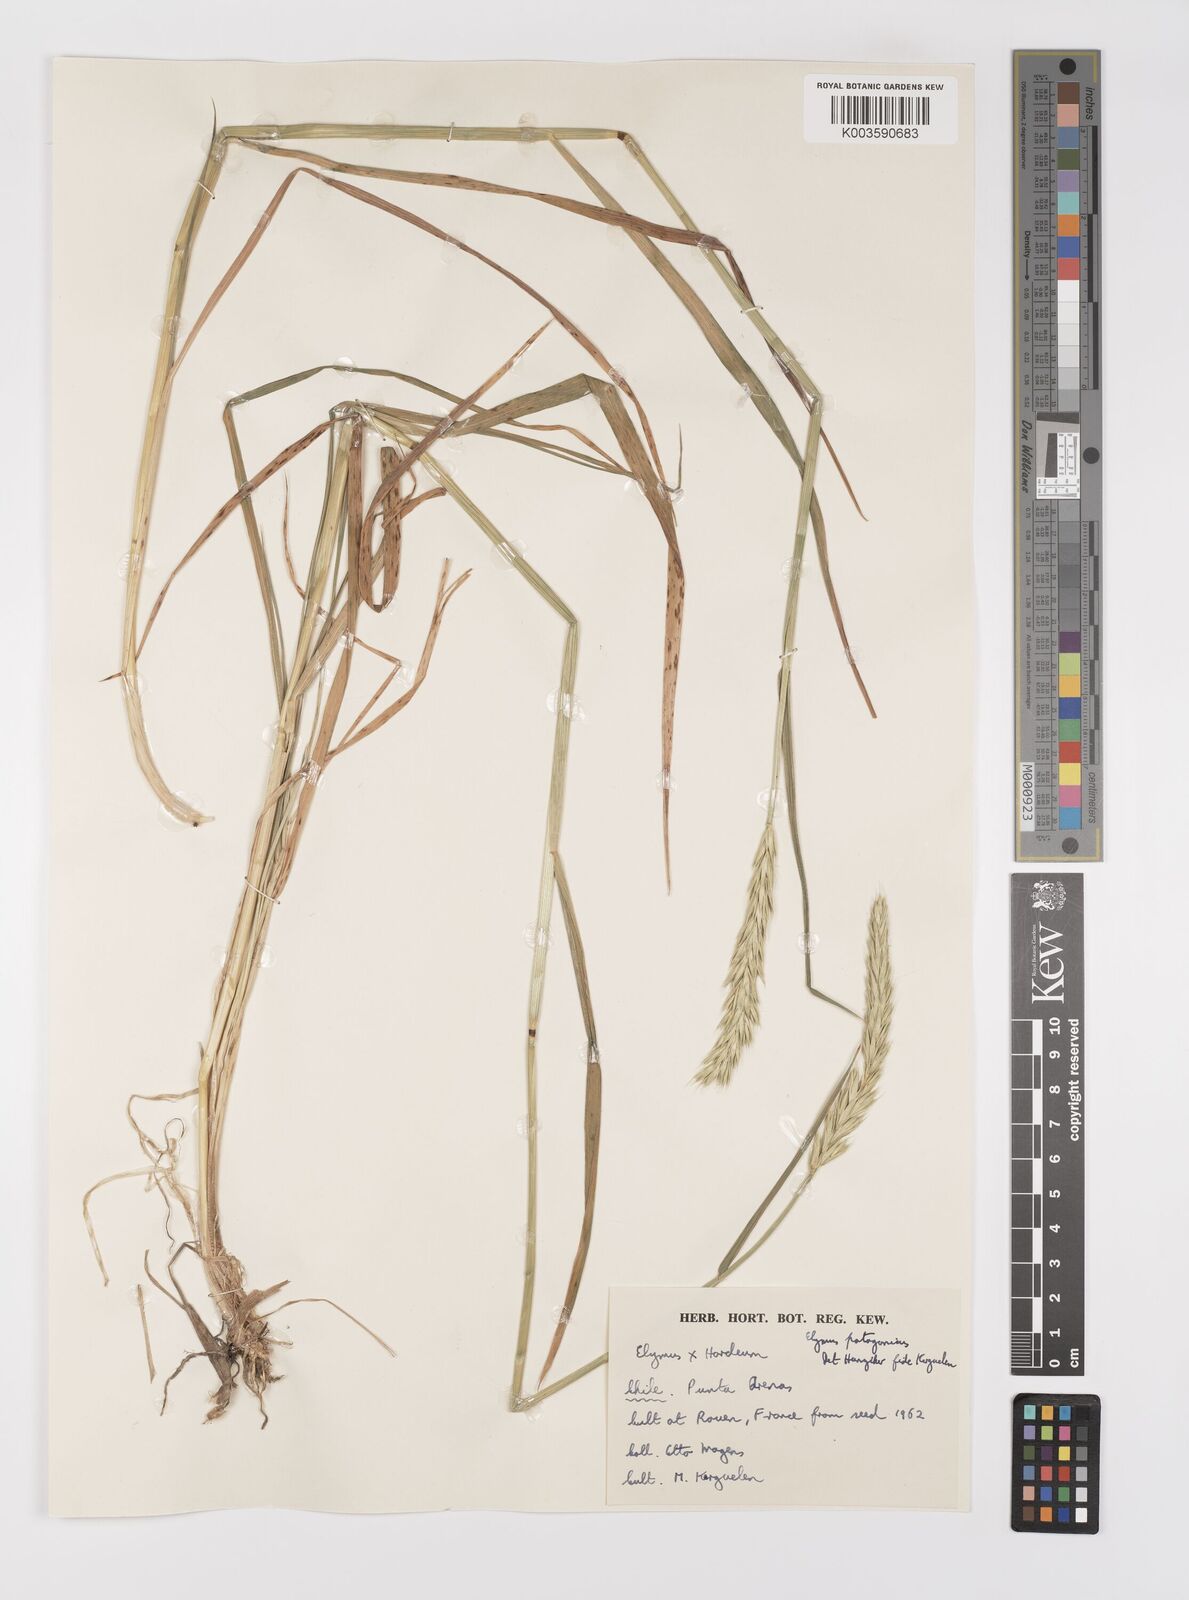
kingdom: Plantae
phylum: Tracheophyta
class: Liliopsida
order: Poales
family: Poaceae
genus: Elymus
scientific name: Elymus patagonicus
